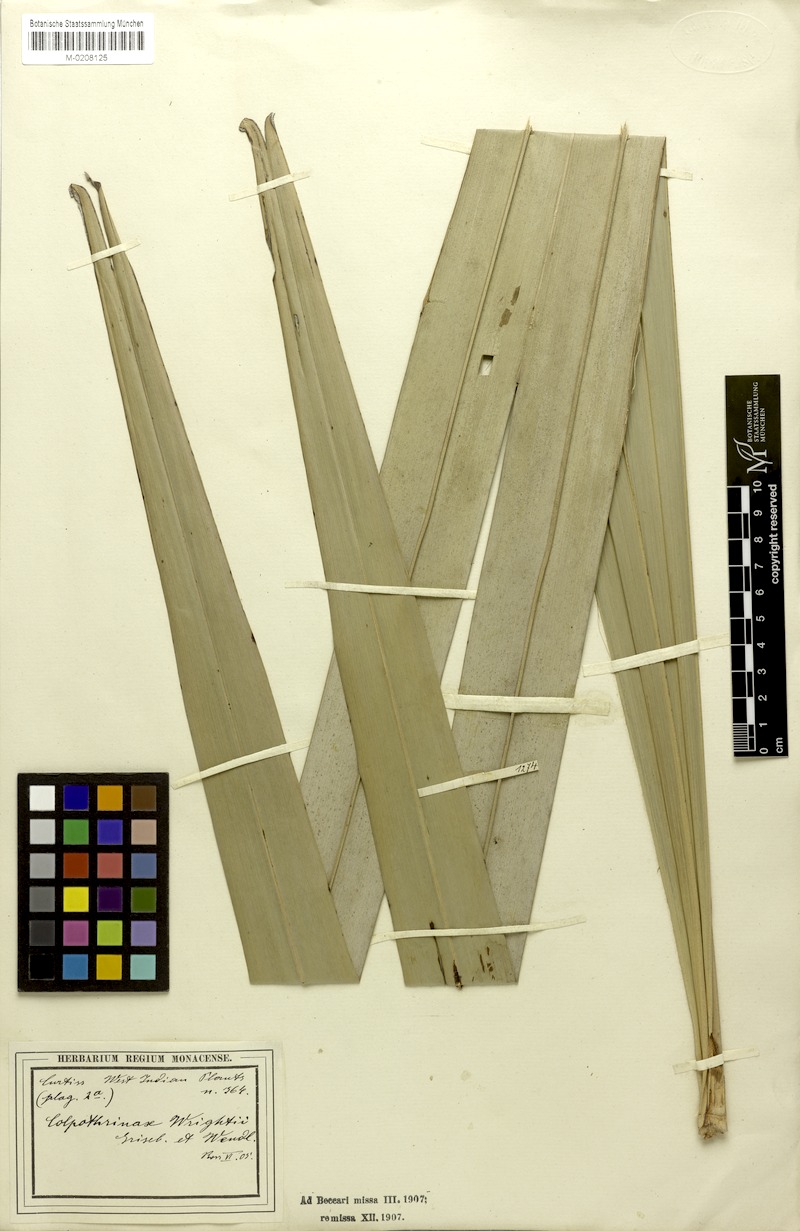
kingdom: Plantae
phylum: Tracheophyta
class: Liliopsida
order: Arecales
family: Arecaceae
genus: Colpothrinax
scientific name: Colpothrinax wrightii
